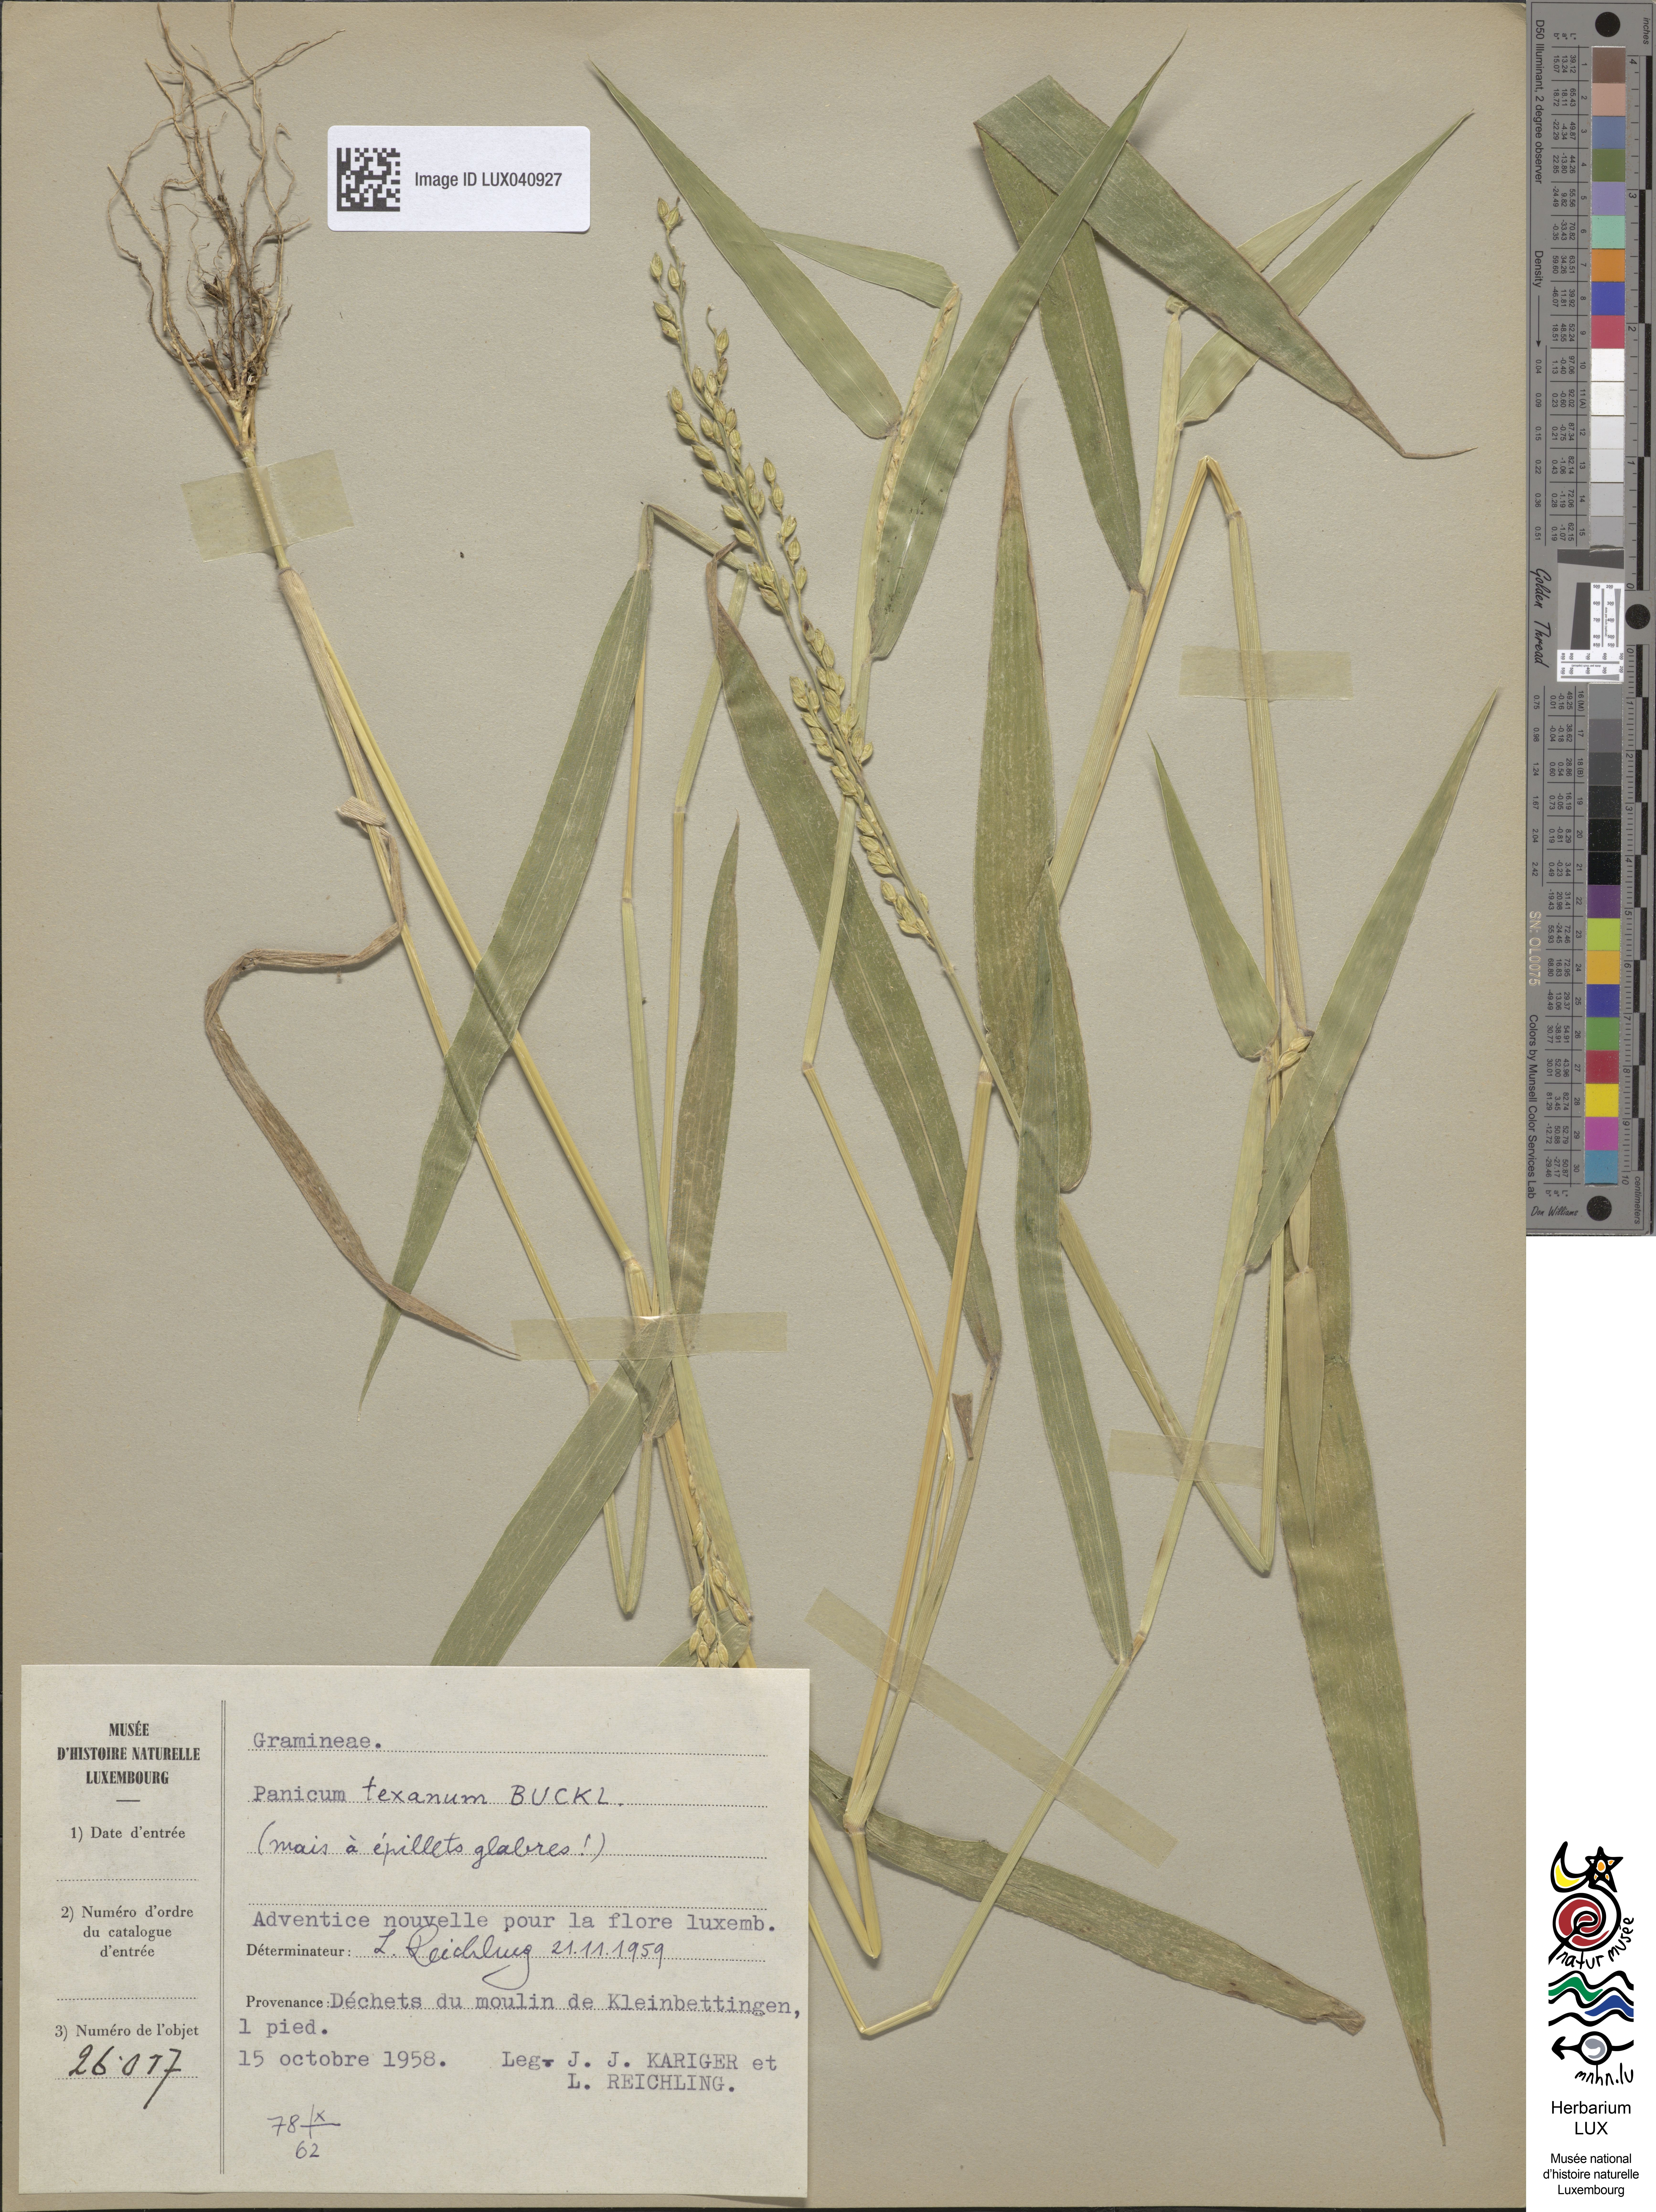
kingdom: Plantae
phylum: Tracheophyta
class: Liliopsida
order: Poales
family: Poaceae
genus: Urochloa
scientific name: Urochloa texana
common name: Texas millet
